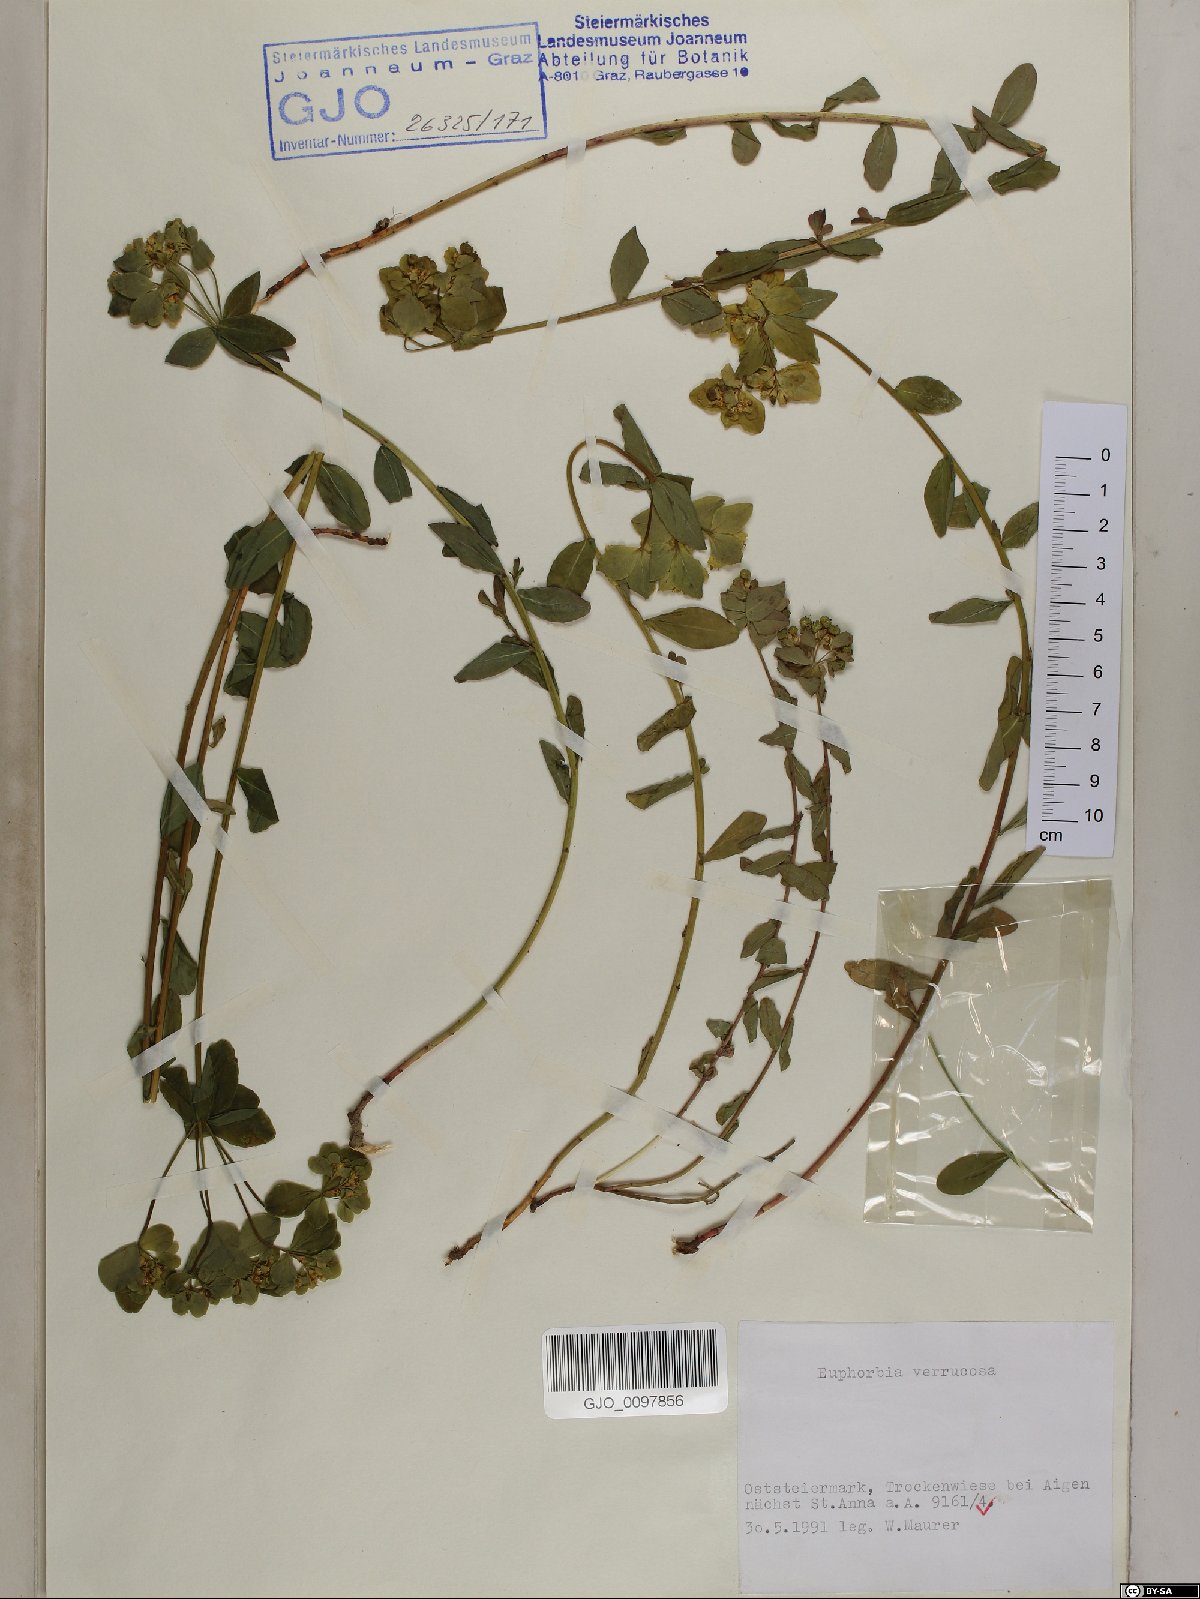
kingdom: Plantae
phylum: Tracheophyta
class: Magnoliopsida
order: Malpighiales
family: Euphorbiaceae
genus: Euphorbia
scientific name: Euphorbia verrucosa
